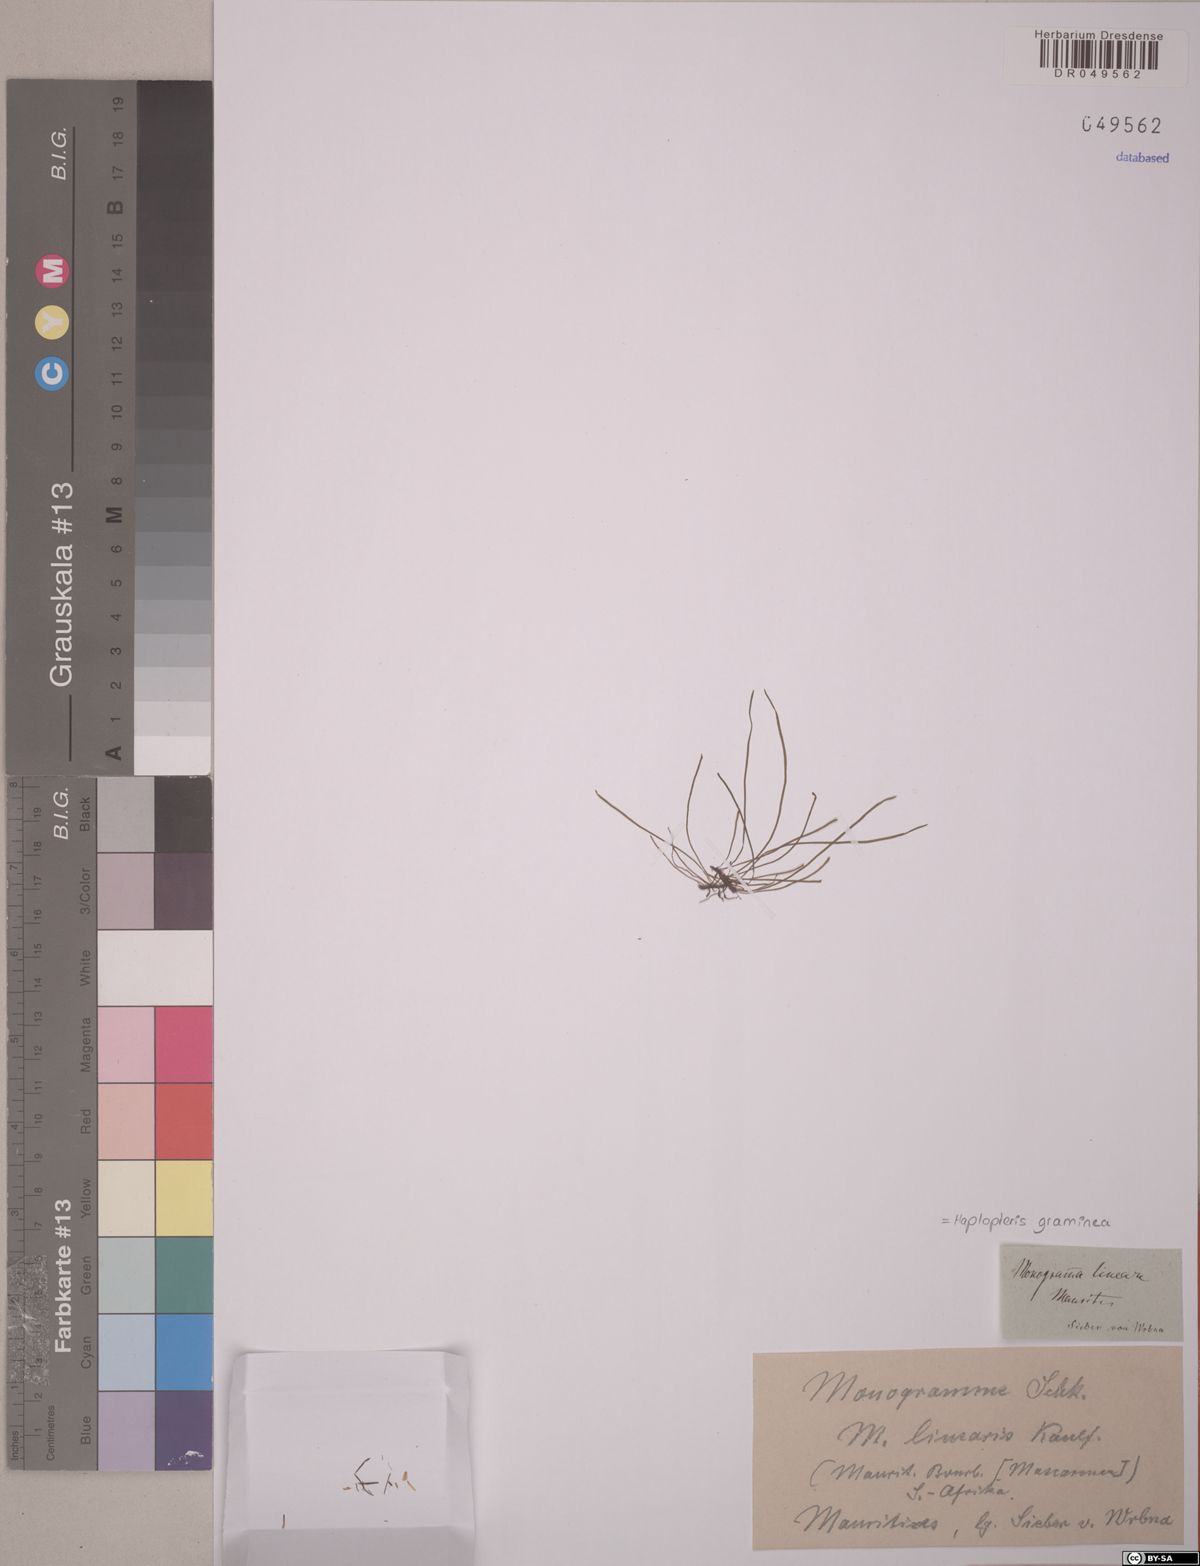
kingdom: Plantae
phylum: Tracheophyta
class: Polypodiopsida
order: Polypodiales
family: Pteridaceae
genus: Haplopteris
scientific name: Haplopteris graminea
